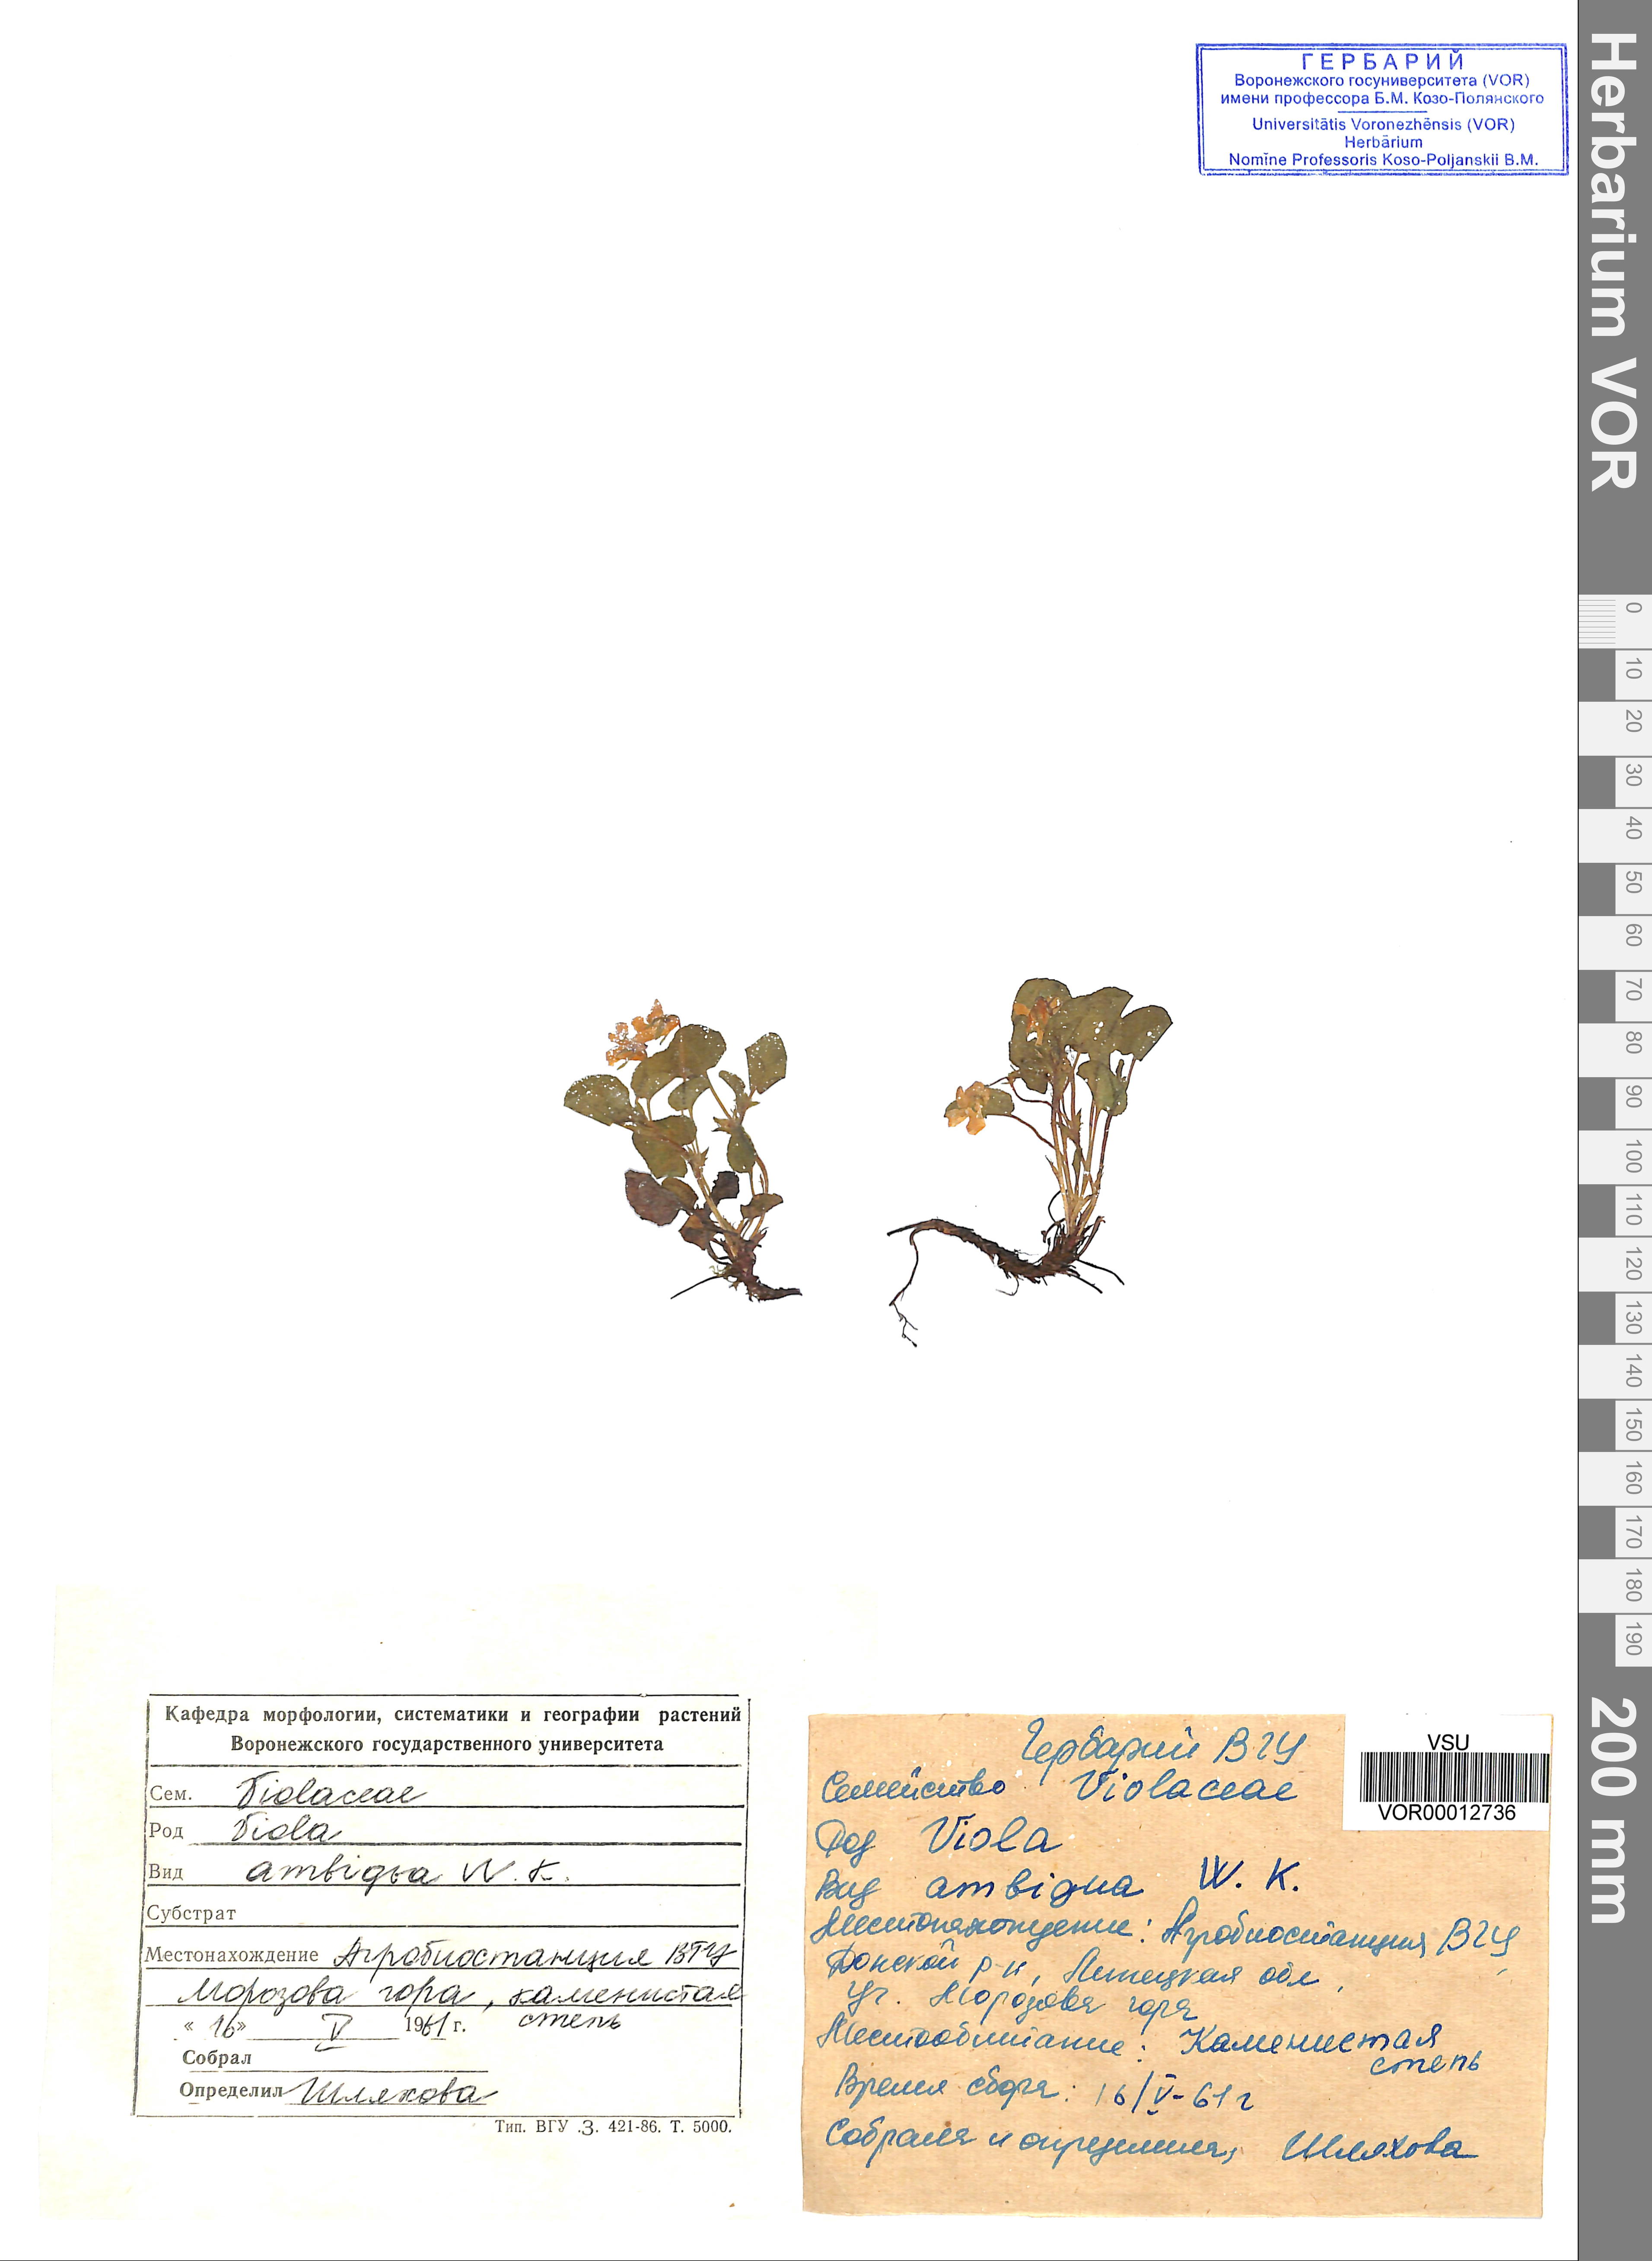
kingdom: Plantae
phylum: Tracheophyta
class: Magnoliopsida
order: Malpighiales
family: Violaceae
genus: Viola
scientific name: Viola ambigua
